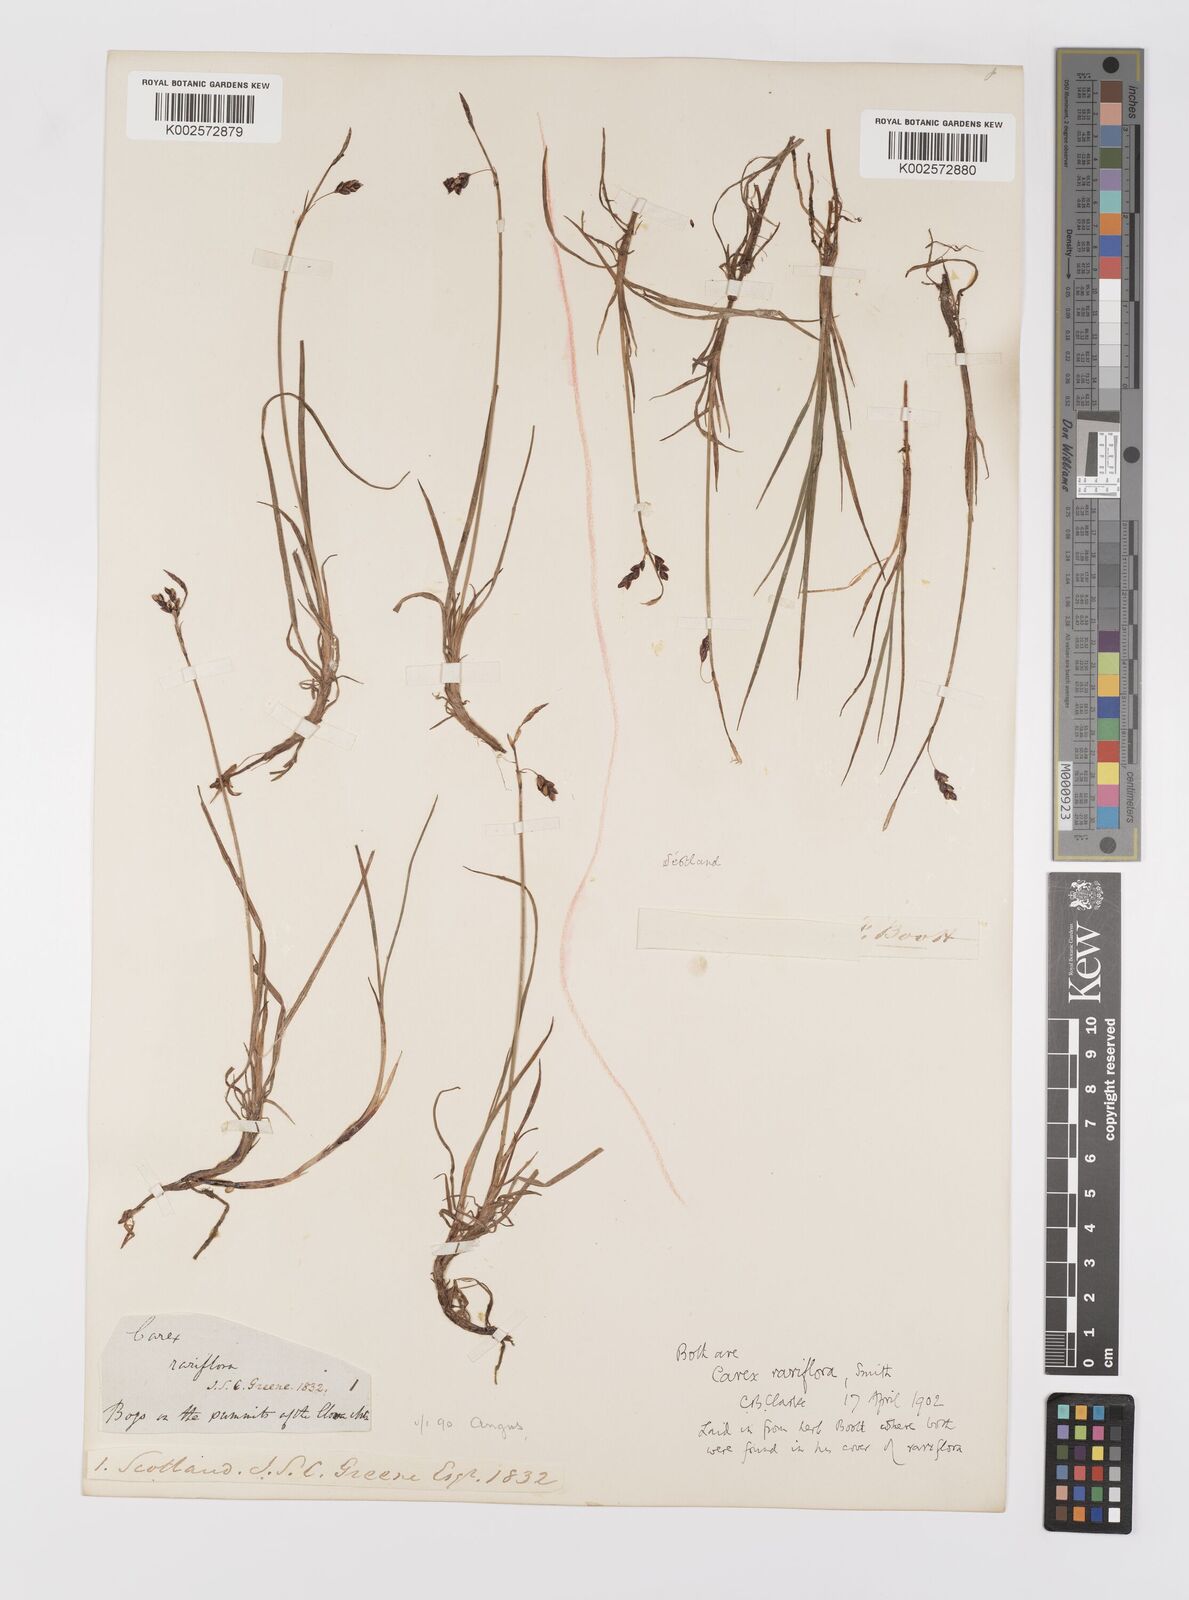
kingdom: Plantae
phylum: Tracheophyta
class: Liliopsida
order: Poales
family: Cyperaceae
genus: Carex
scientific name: Carex rariflora
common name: Loose-flowered alpine sedge
